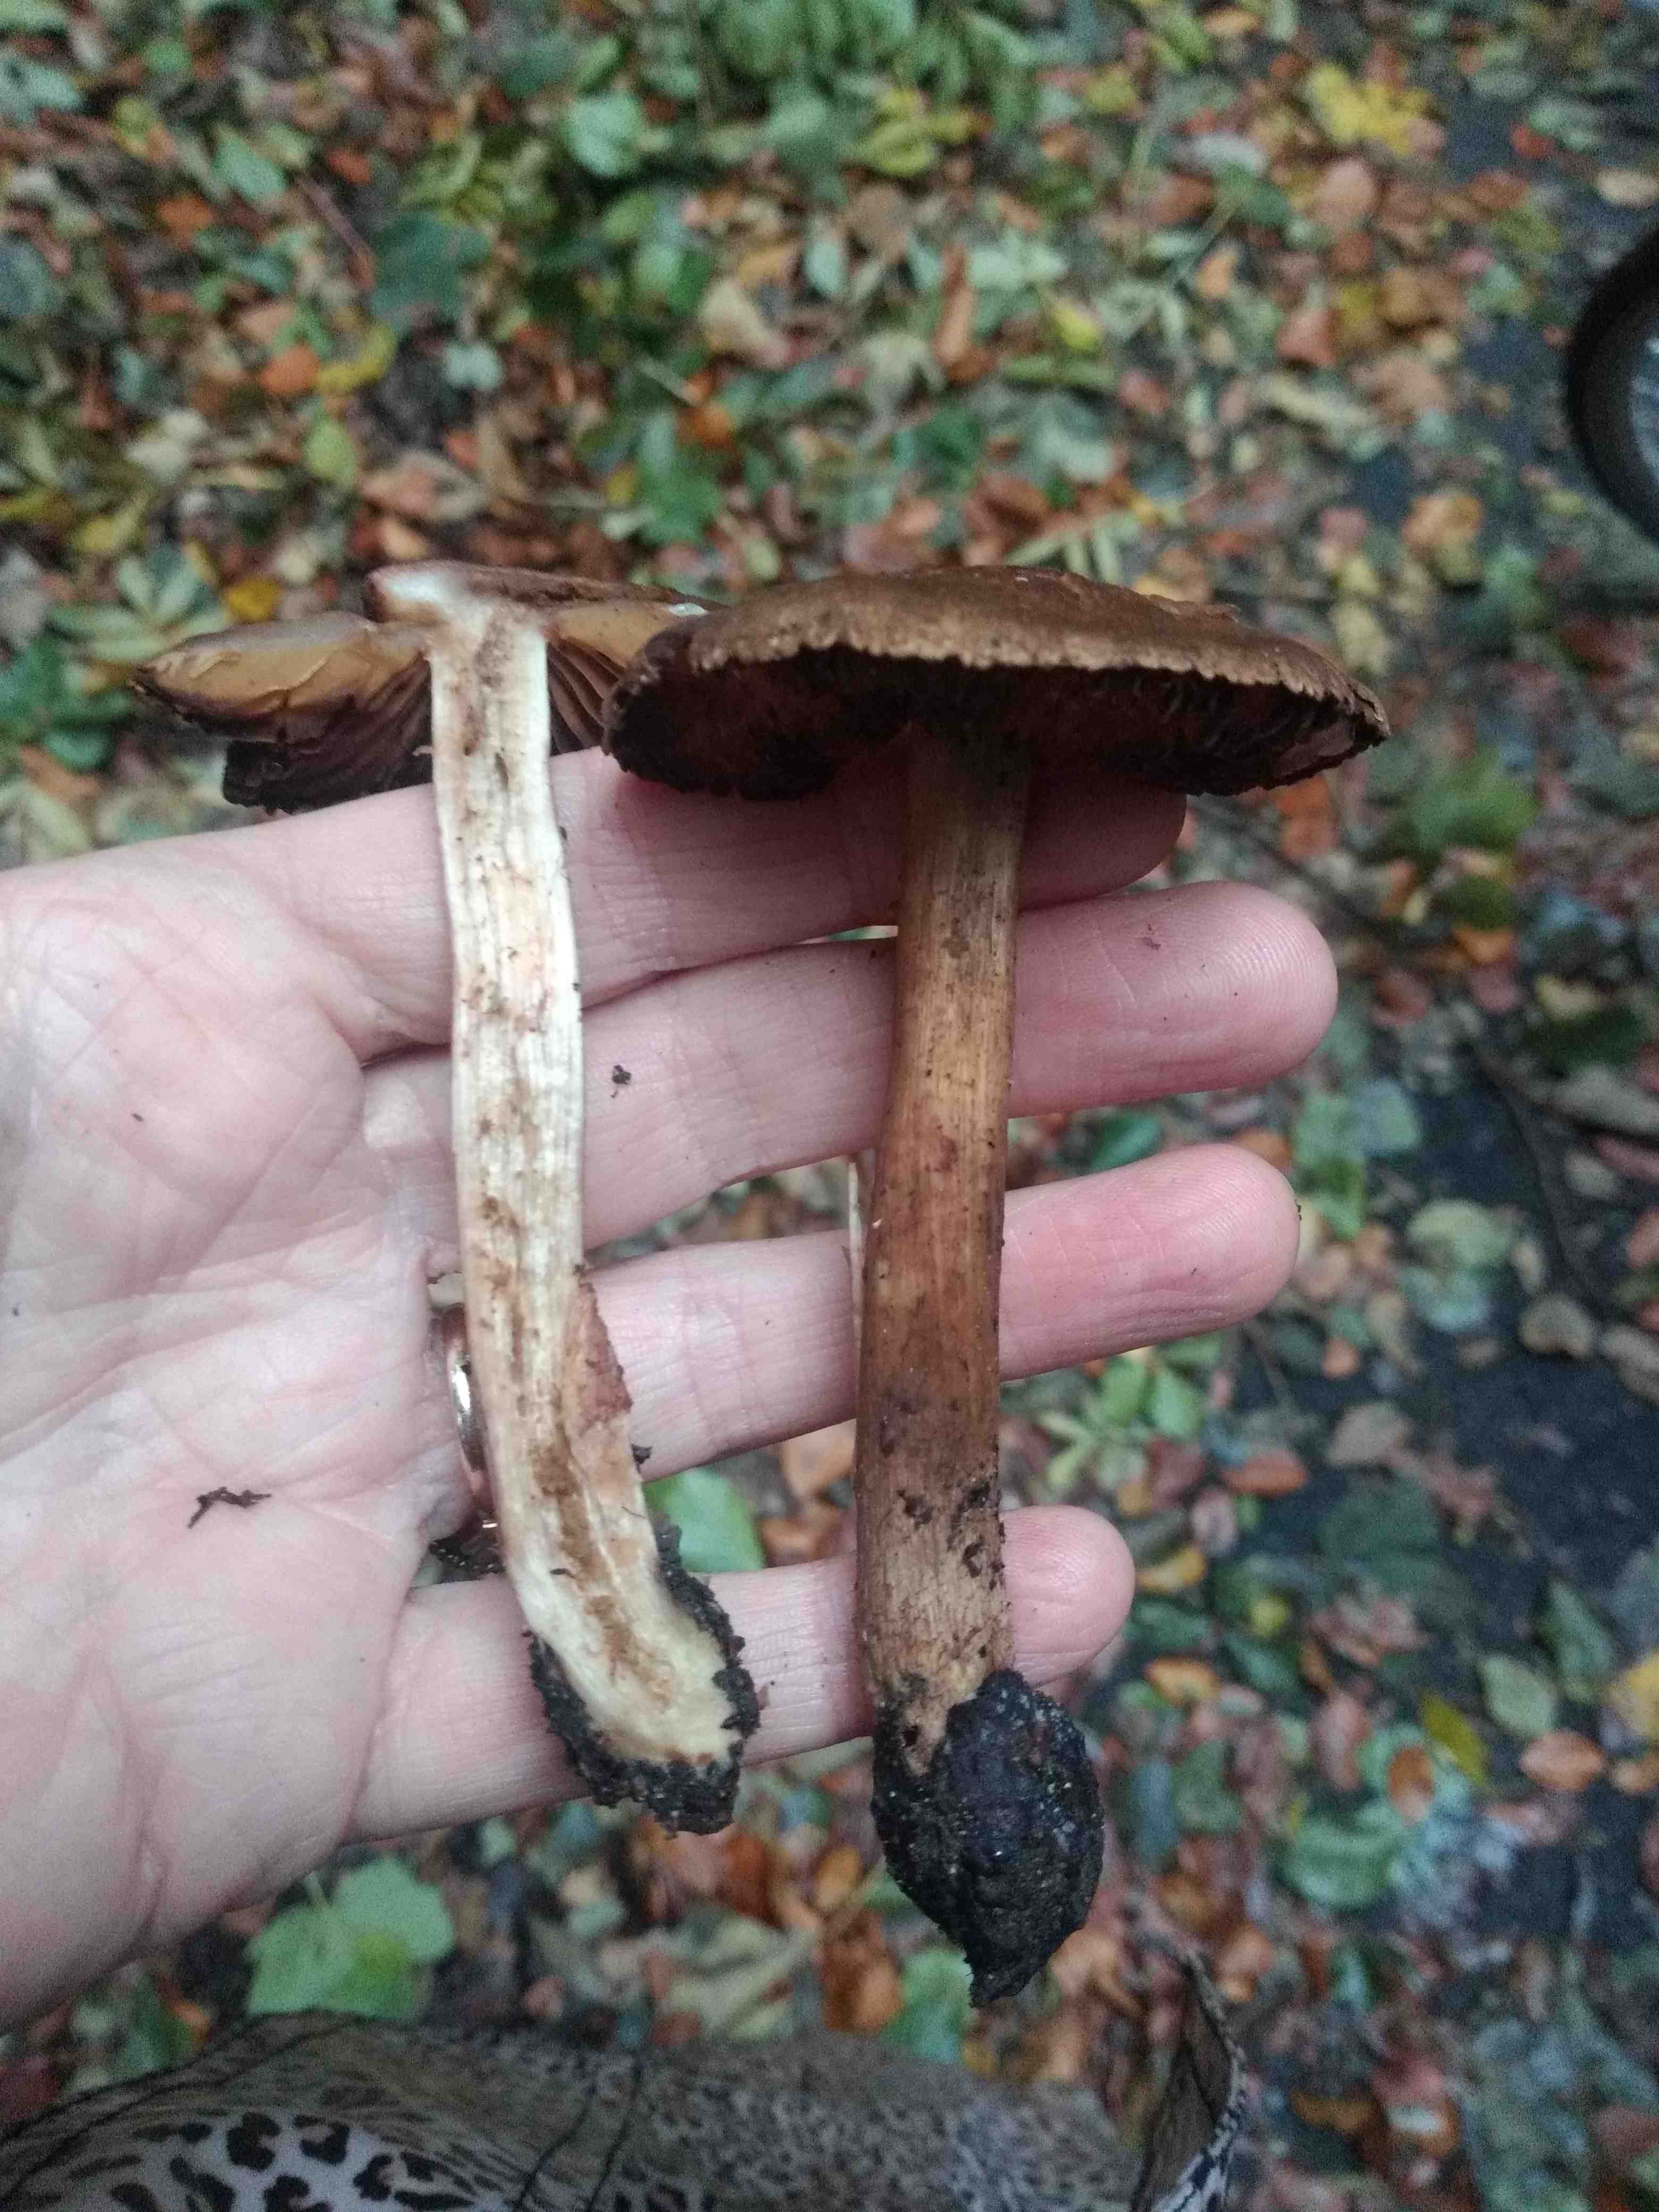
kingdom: Fungi
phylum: Basidiomycota
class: Agaricomycetes
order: Agaricales
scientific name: Agaricales
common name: champignonordenen
